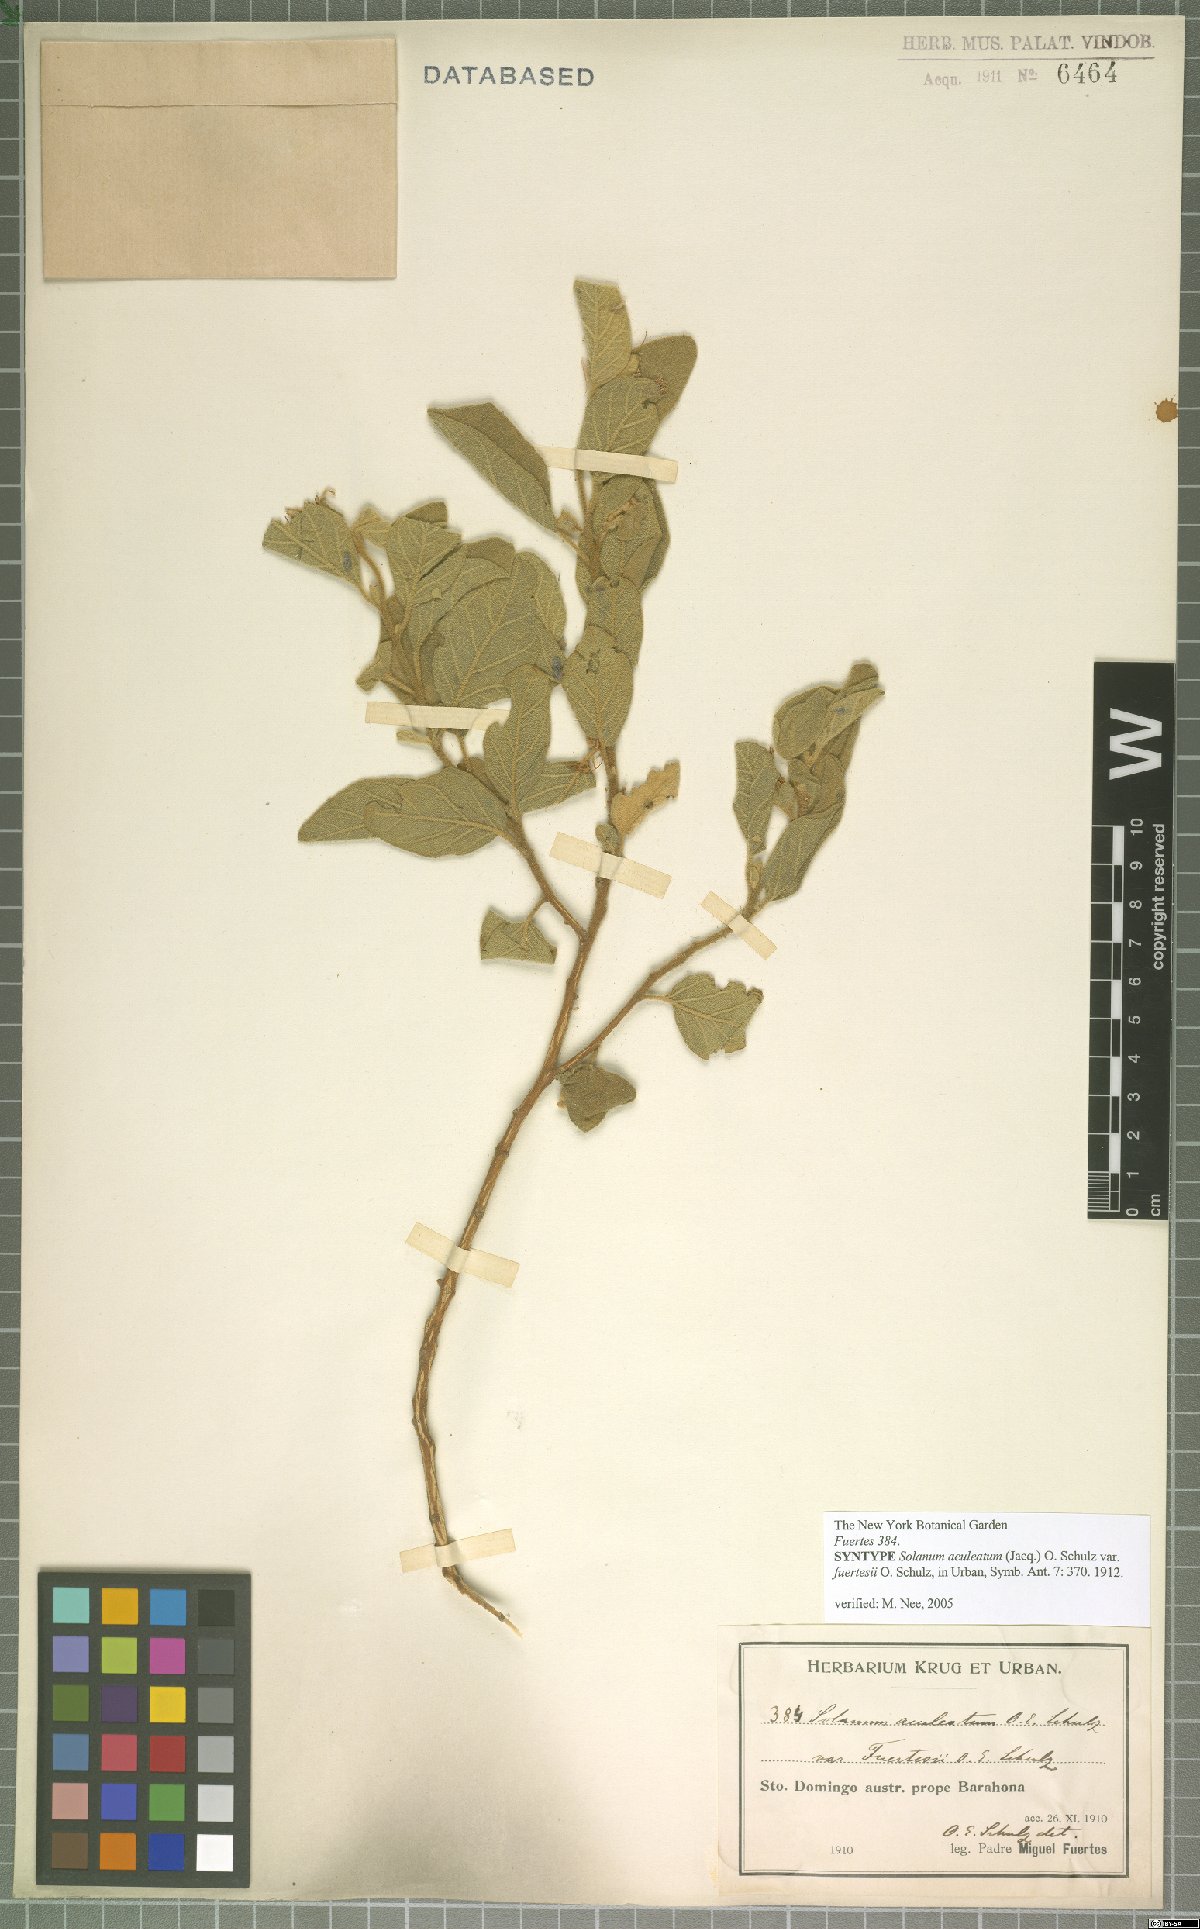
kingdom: Plantae
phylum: Tracheophyta
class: Magnoliopsida
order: Solanales
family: Solanaceae
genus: Solanum
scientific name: Solanum tetramerum
